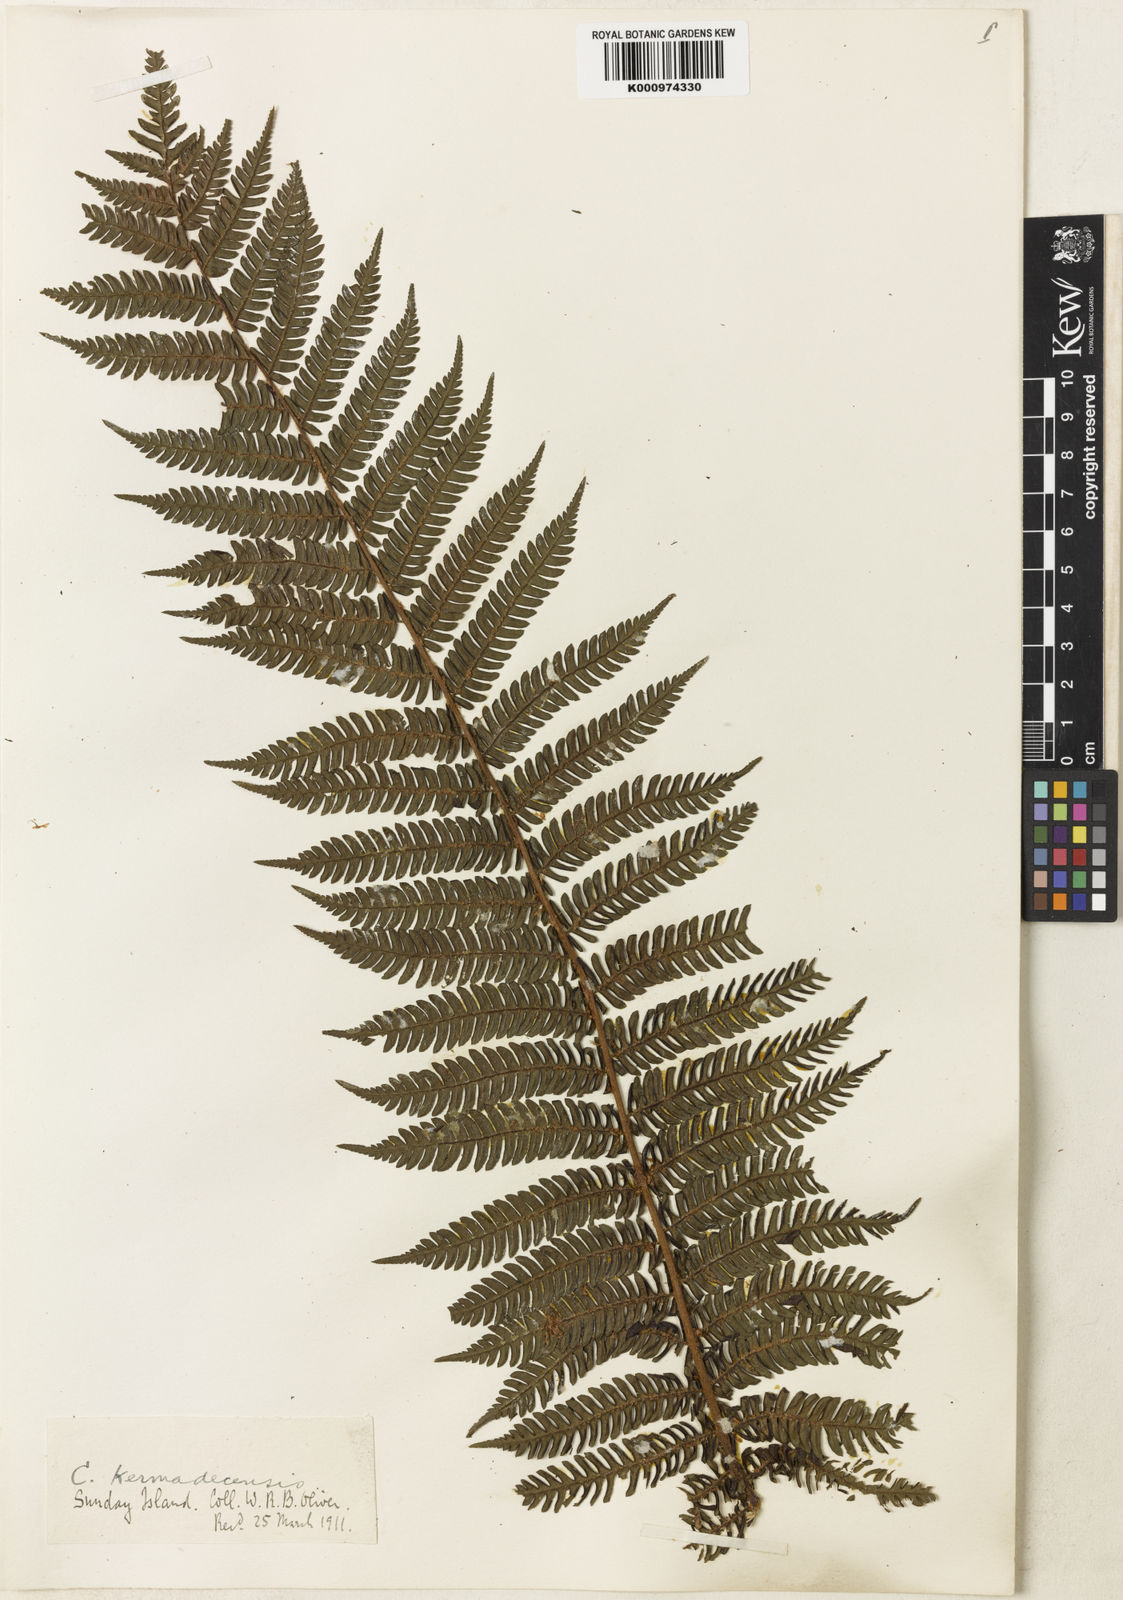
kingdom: Plantae
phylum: Tracheophyta
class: Polypodiopsida
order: Cyatheales
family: Cyatheaceae
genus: Alsophila
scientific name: Alsophila kermadecensis
